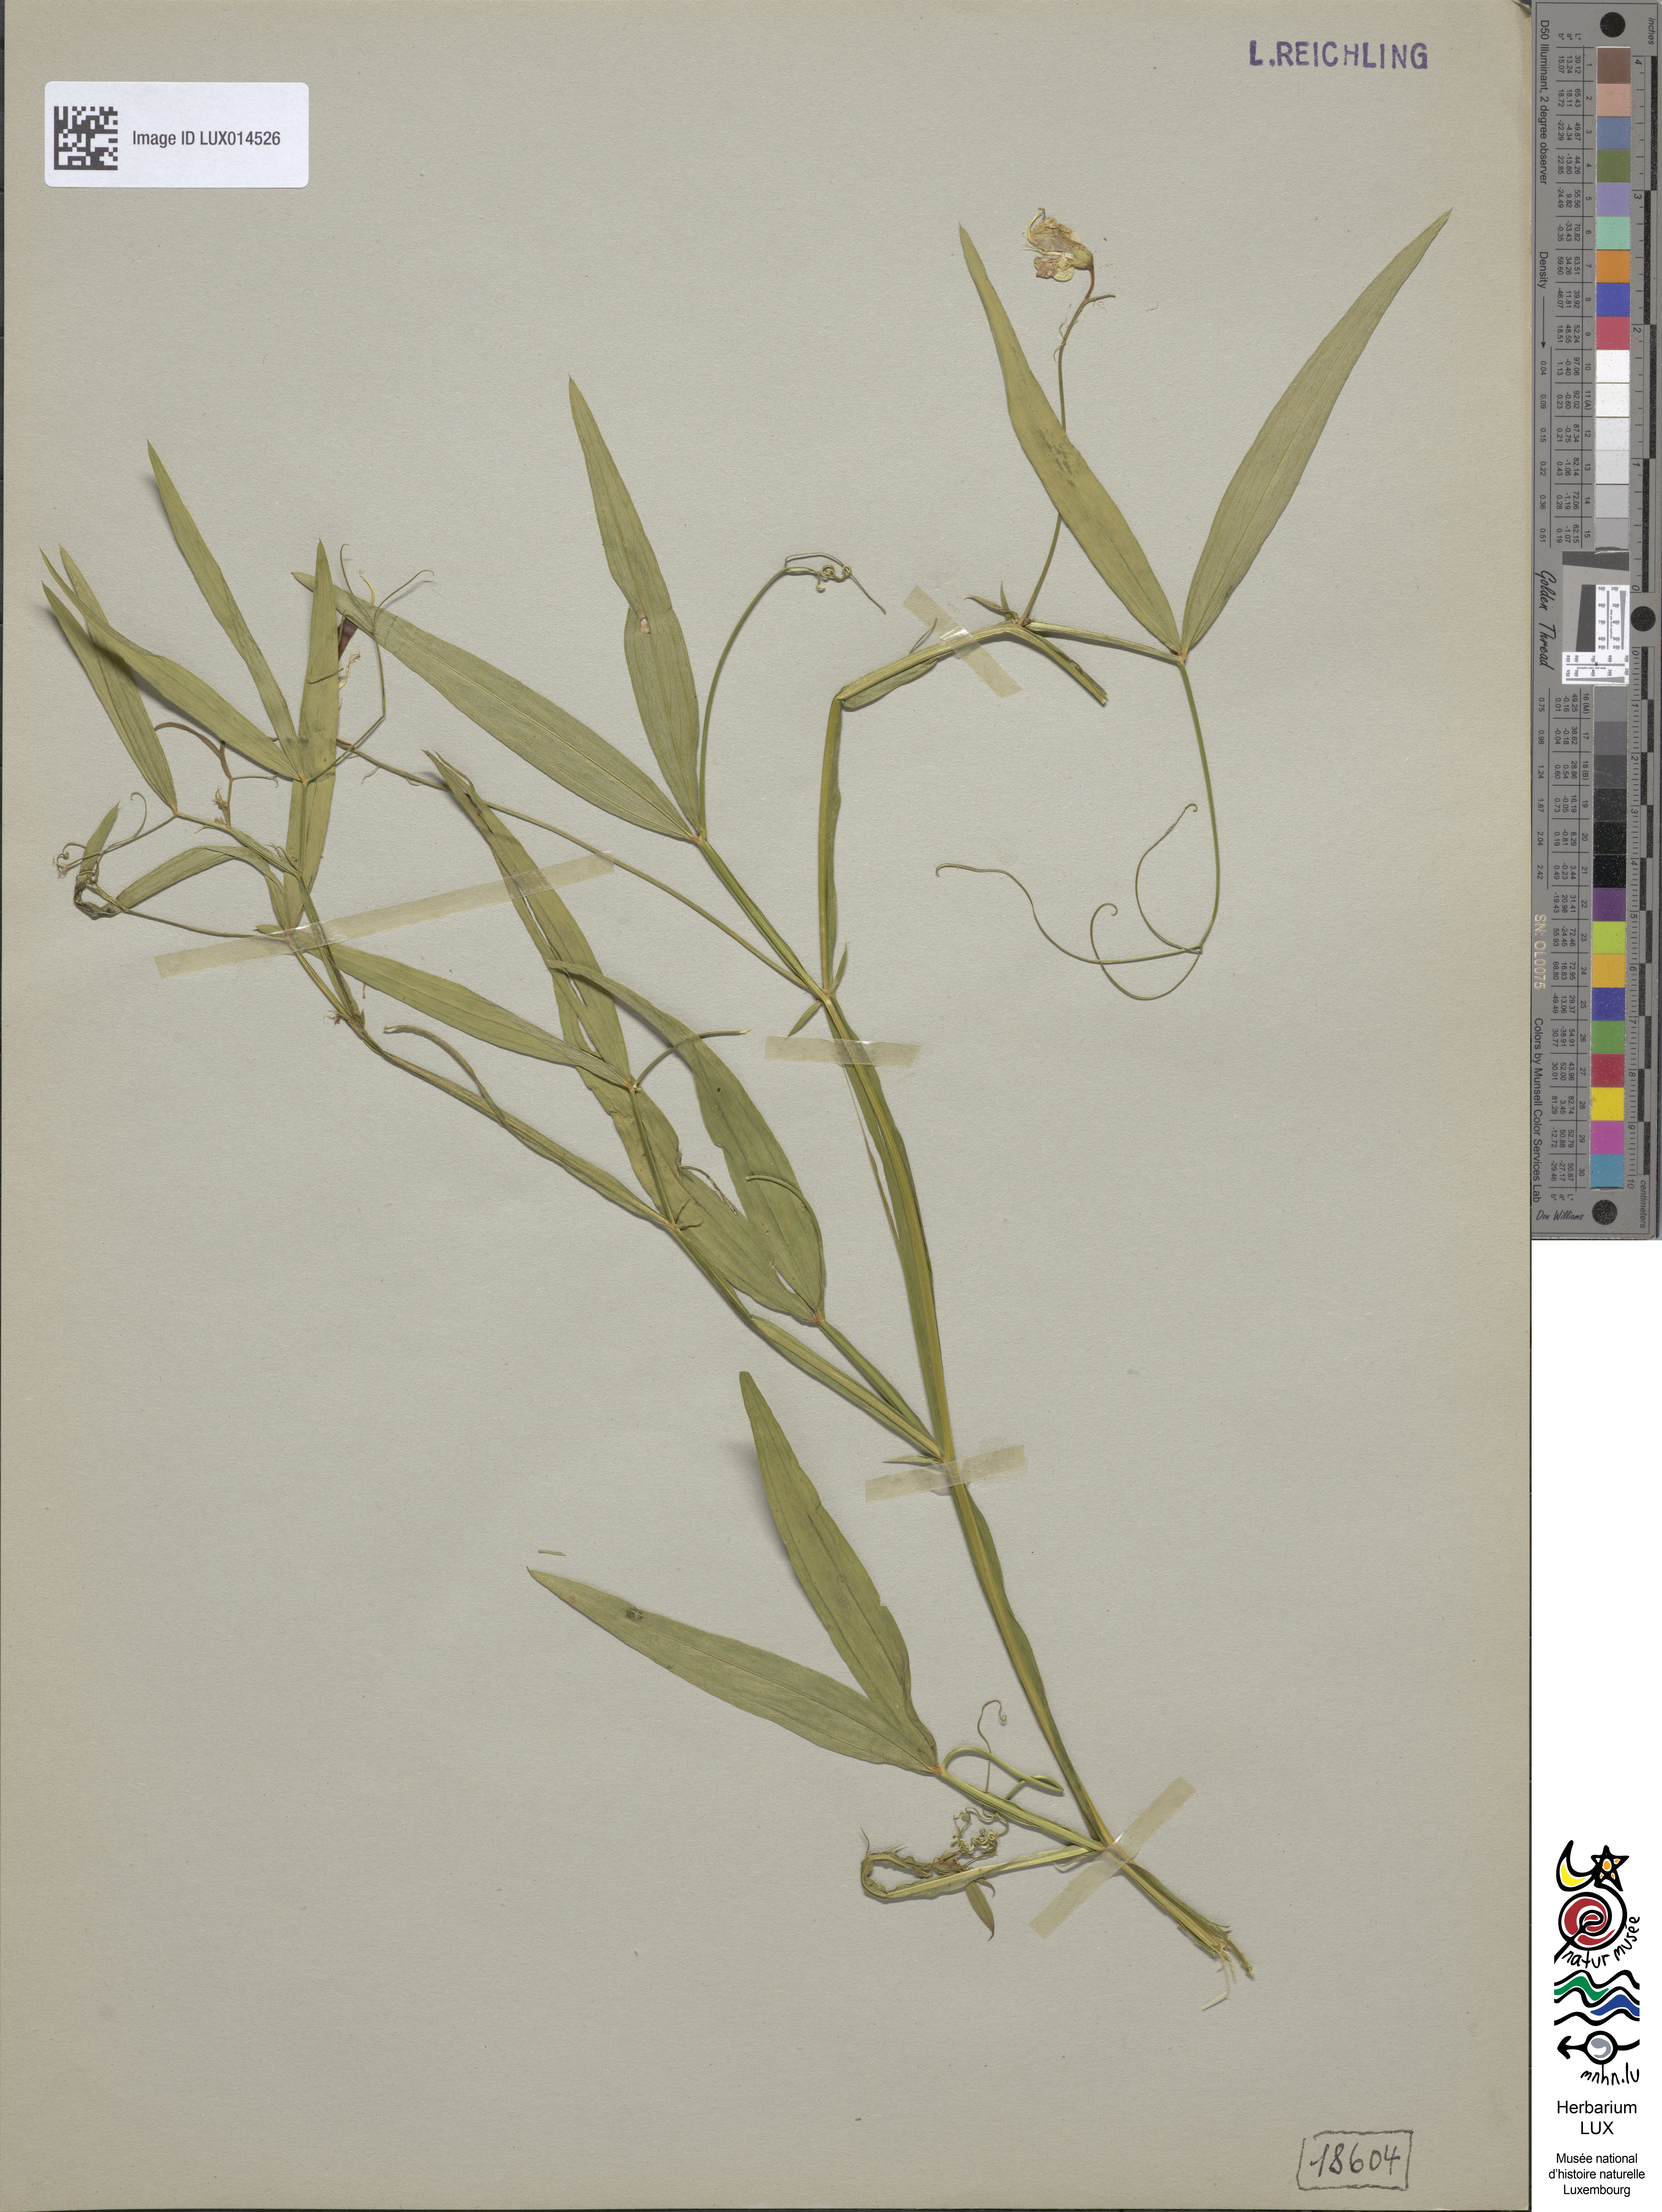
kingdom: Plantae
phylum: Tracheophyta
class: Magnoliopsida
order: Fabales
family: Fabaceae
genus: Lathyrus
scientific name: Lathyrus sylvestris
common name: Flat pea
